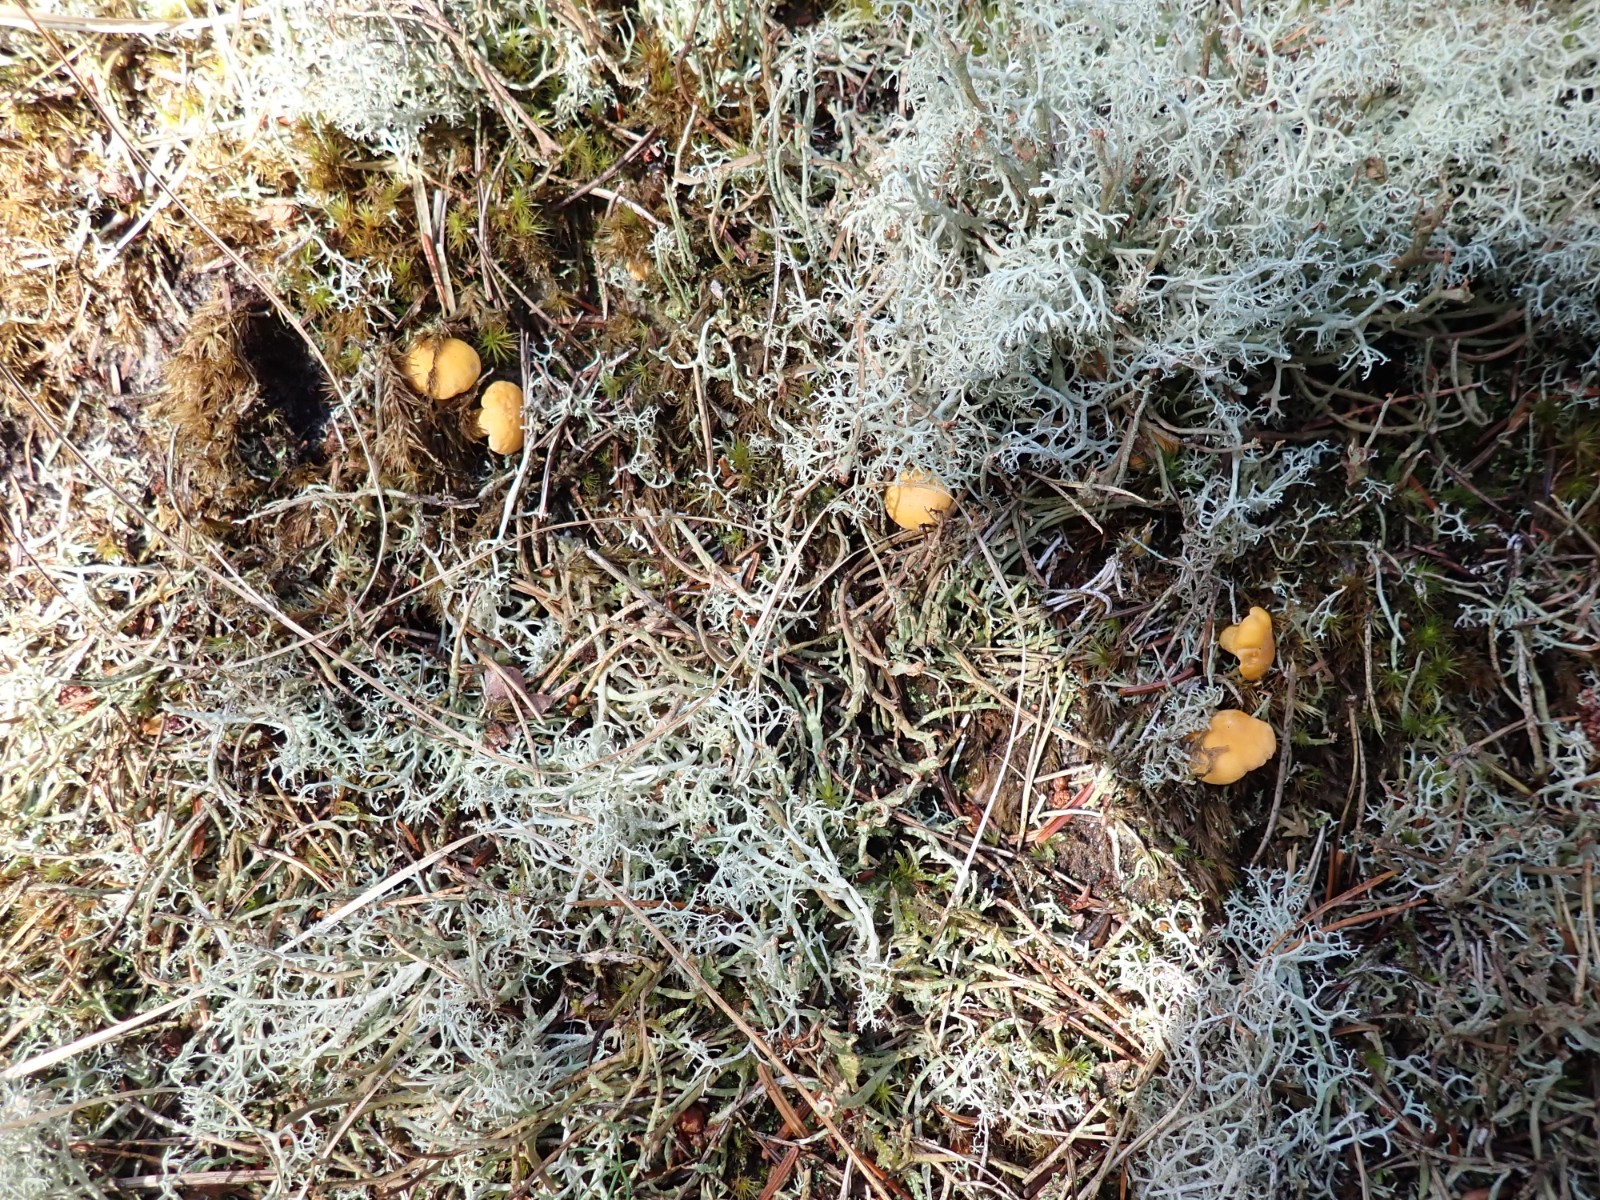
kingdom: Fungi
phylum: Basidiomycota
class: Agaricomycetes
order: Cantharellales
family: Hydnaceae
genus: Cantharellus
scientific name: Cantharellus cibarius
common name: almindelig kantarel
